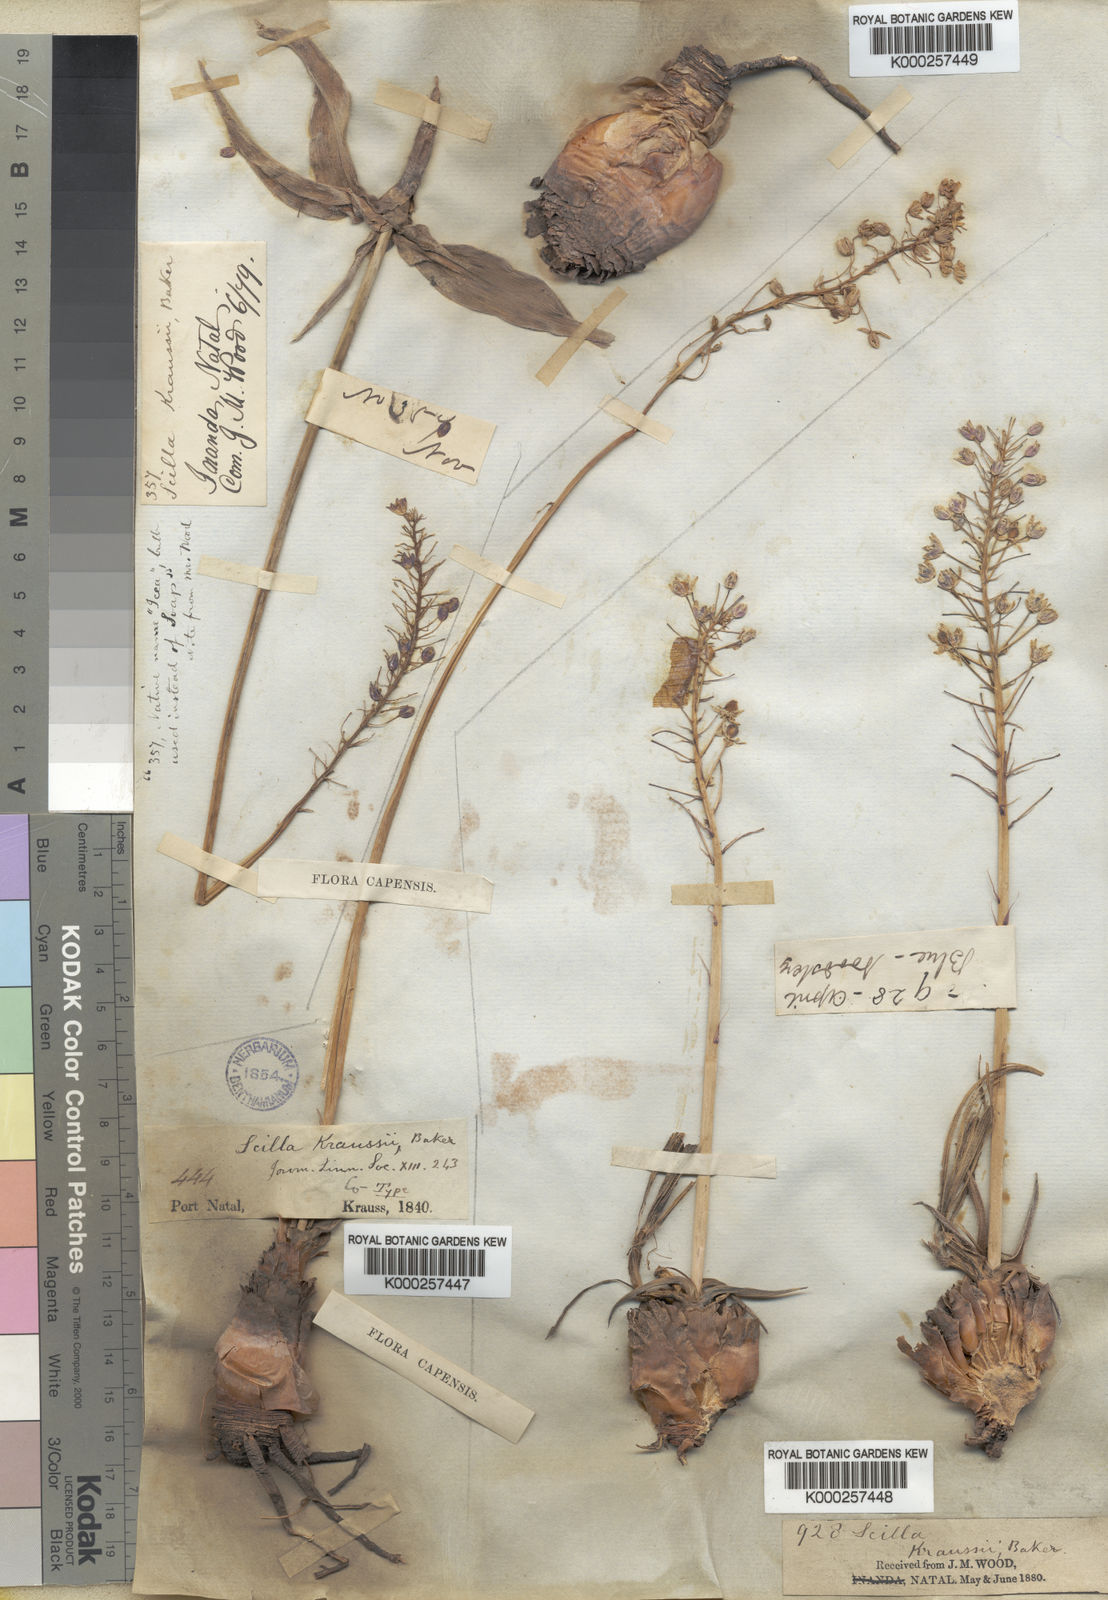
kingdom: Plantae
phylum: Tracheophyta
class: Liliopsida
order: Asparagales
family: Asparagaceae
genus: Merwilla
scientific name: Merwilla plumbea
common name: Blue-squill
